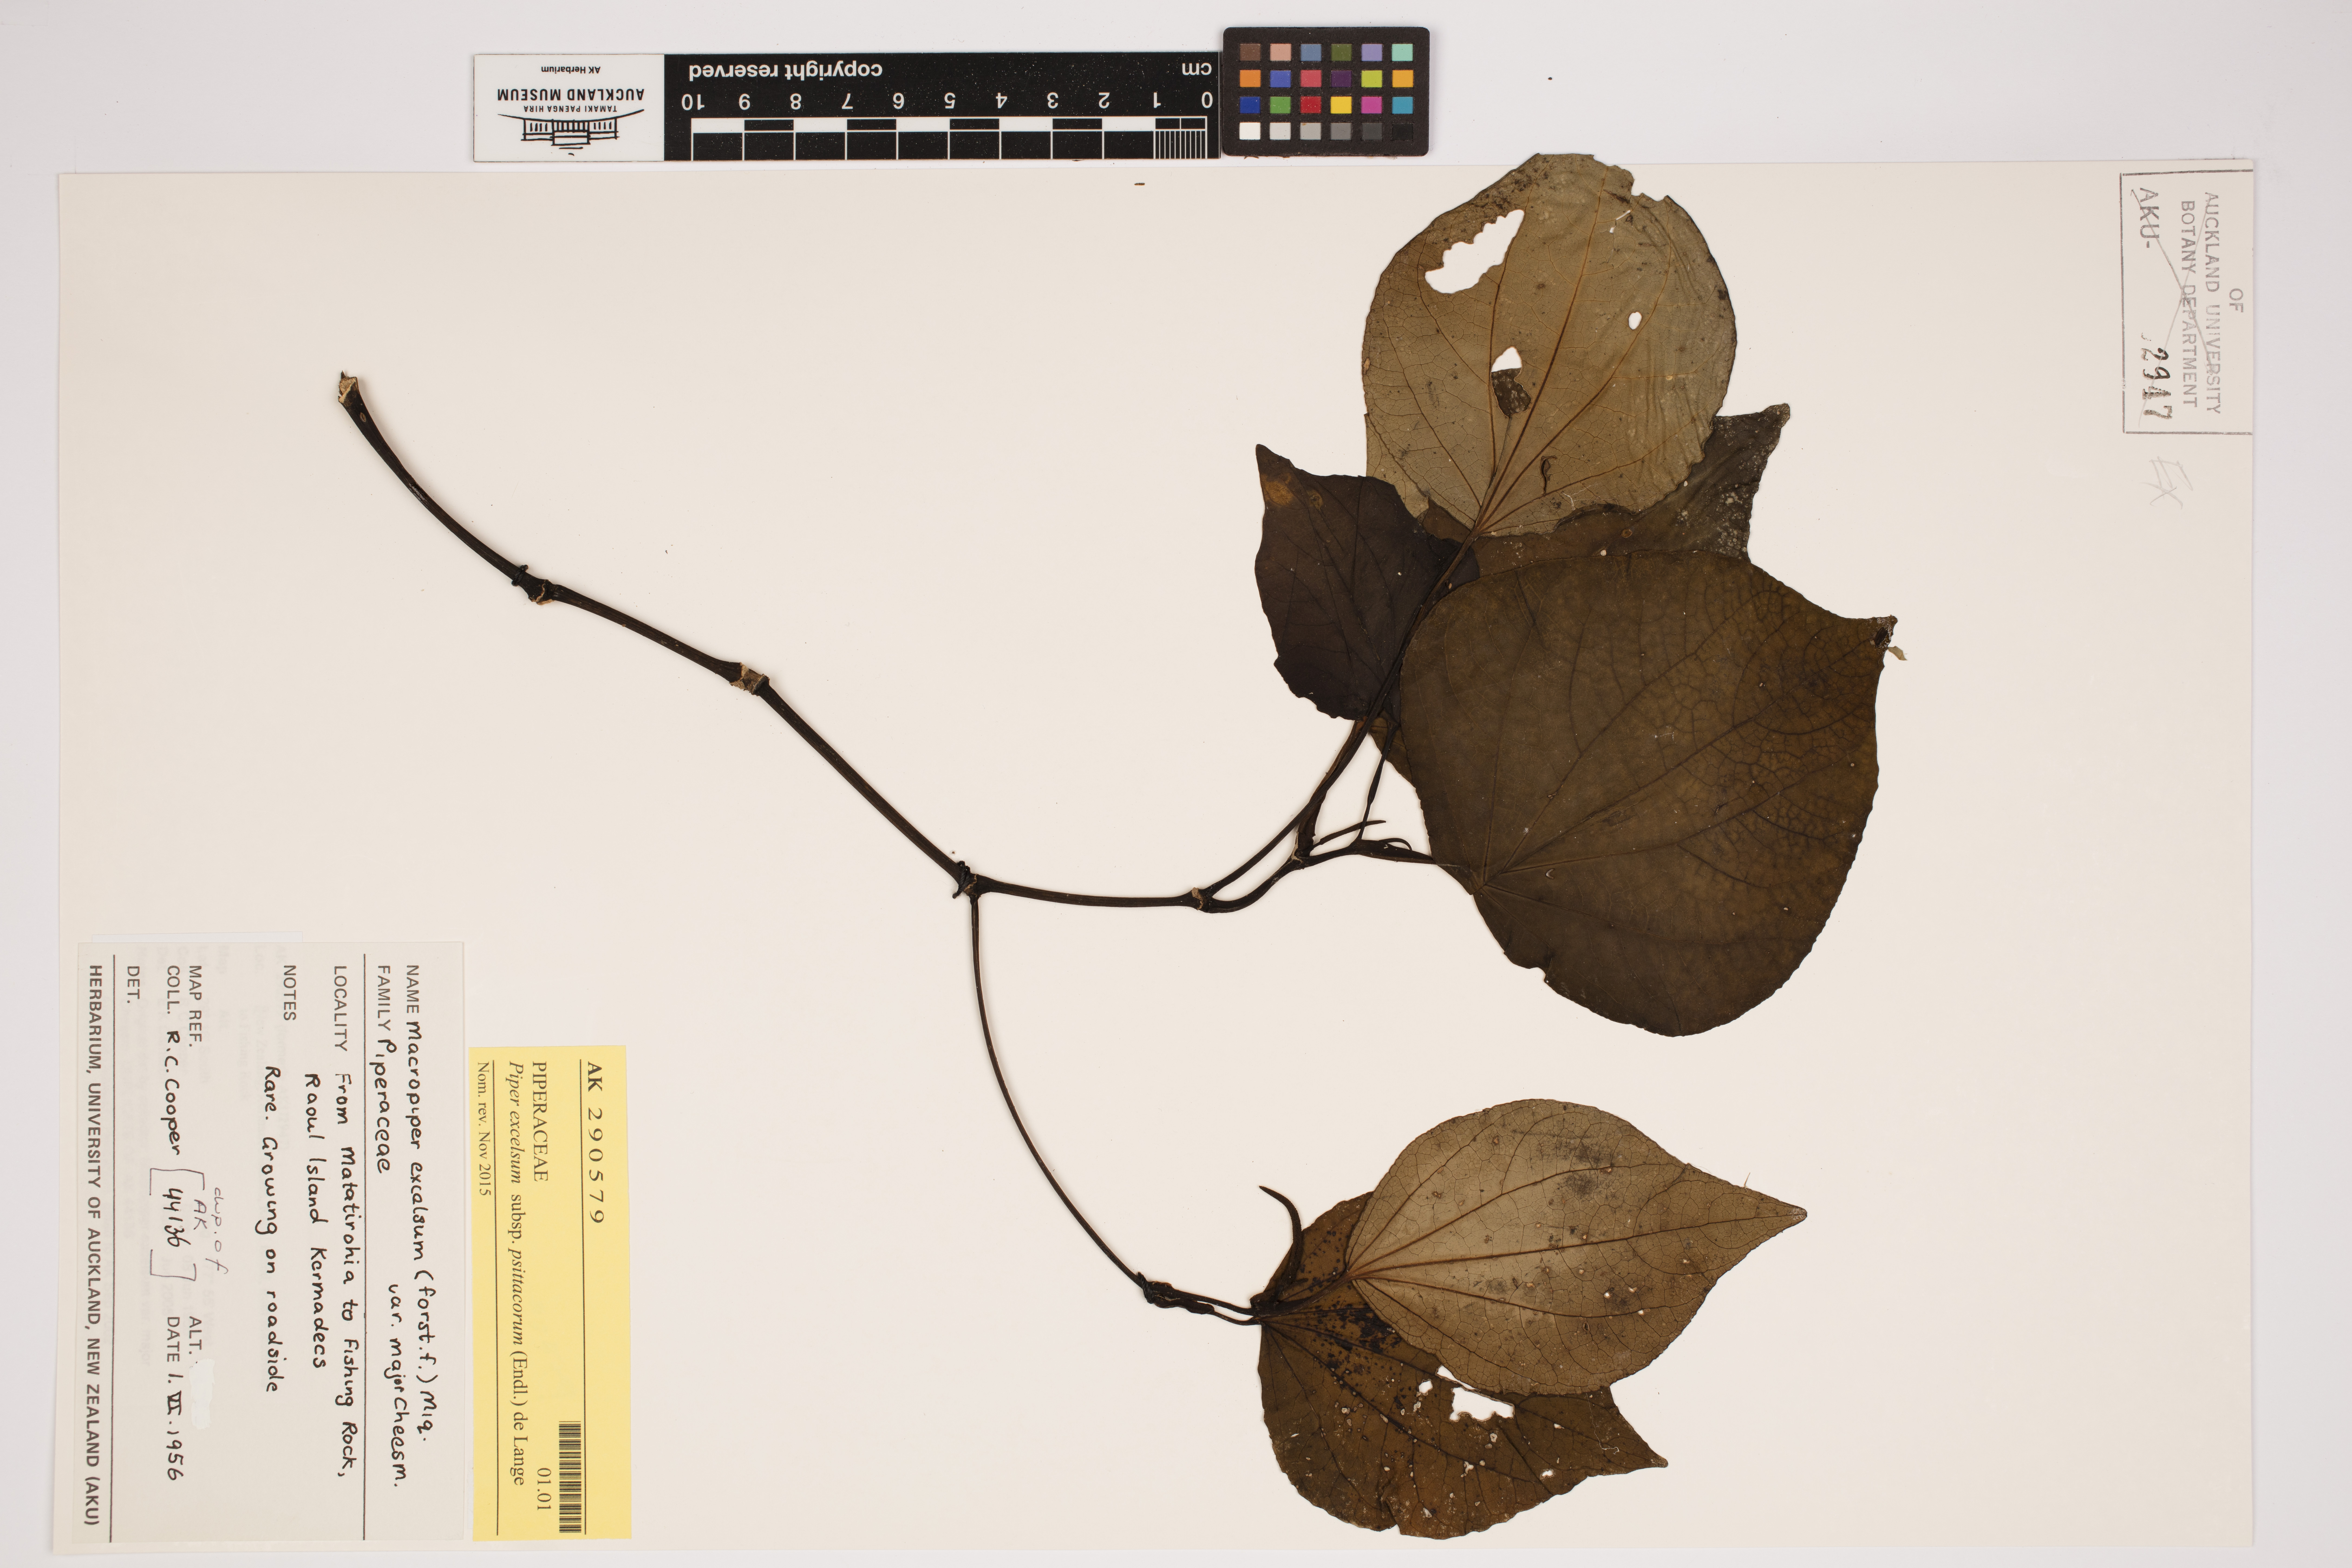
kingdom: Plantae
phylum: Tracheophyta
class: Magnoliopsida
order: Piperales
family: Piperaceae
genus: Macropiper
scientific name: Macropiper excelsum
